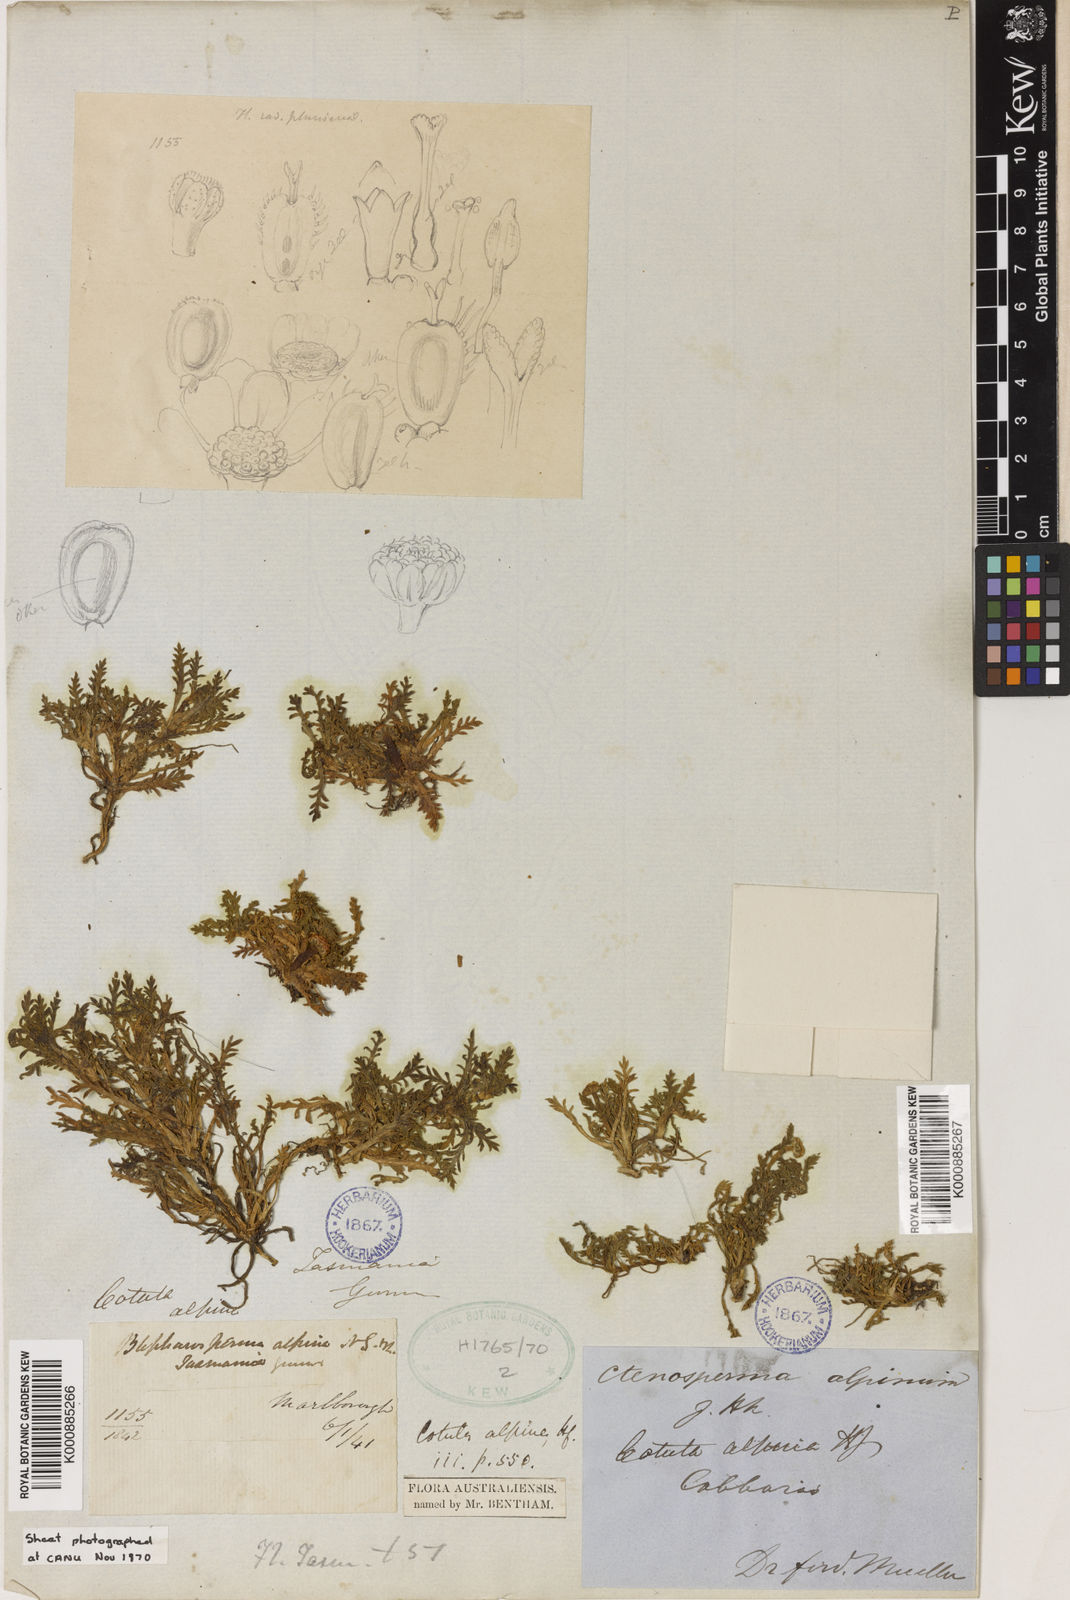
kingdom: Plantae
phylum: Tracheophyta
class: Magnoliopsida
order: Asterales
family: Asteraceae
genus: Cotula
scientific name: Cotula alpina
